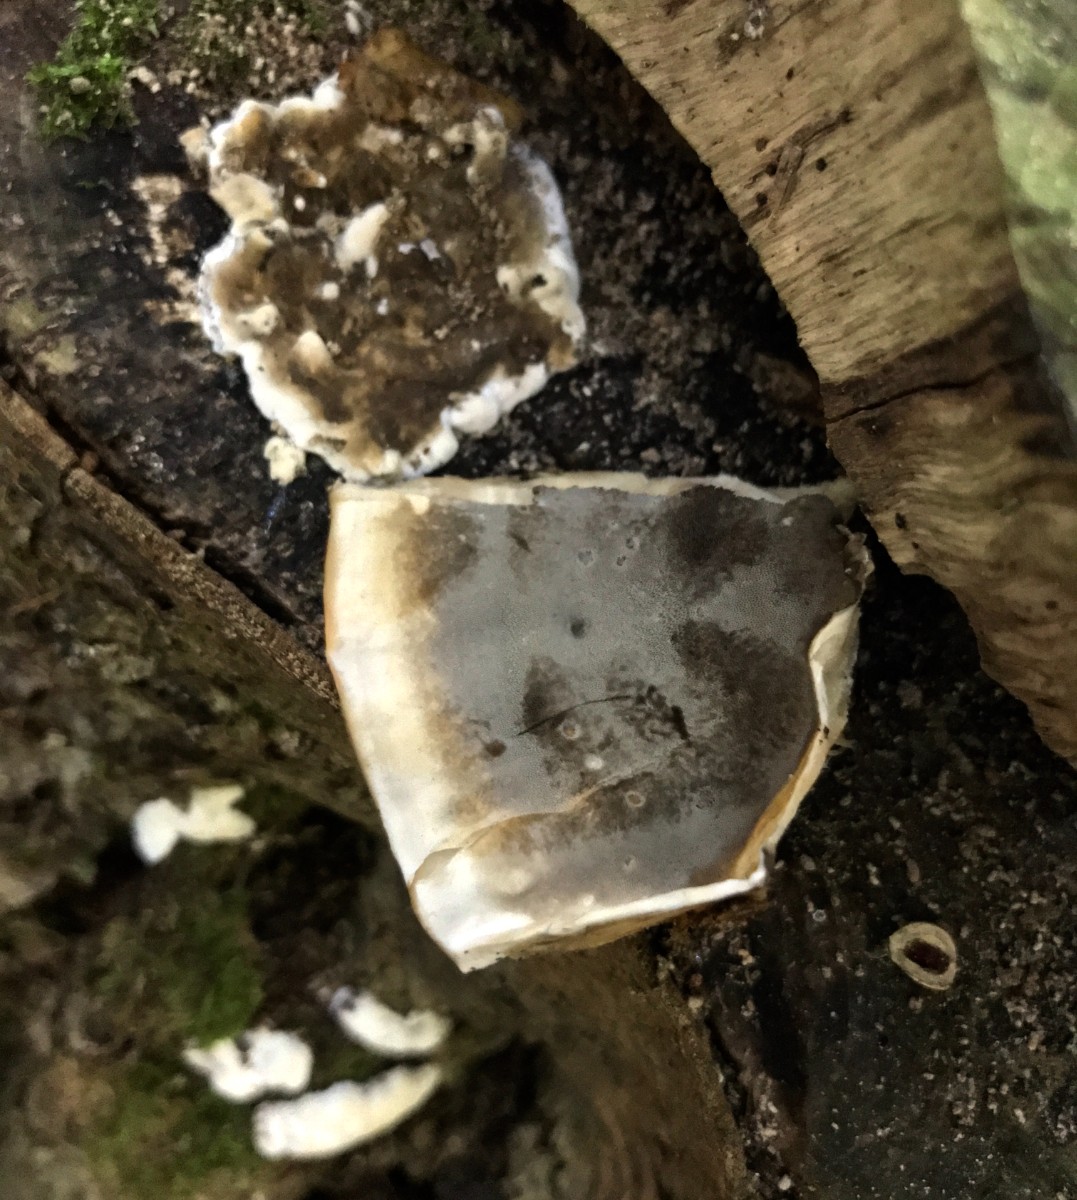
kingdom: Fungi
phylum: Basidiomycota
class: Agaricomycetes
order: Polyporales
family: Phanerochaetaceae
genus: Bjerkandera
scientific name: Bjerkandera adusta
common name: sveden sodporesvamp
